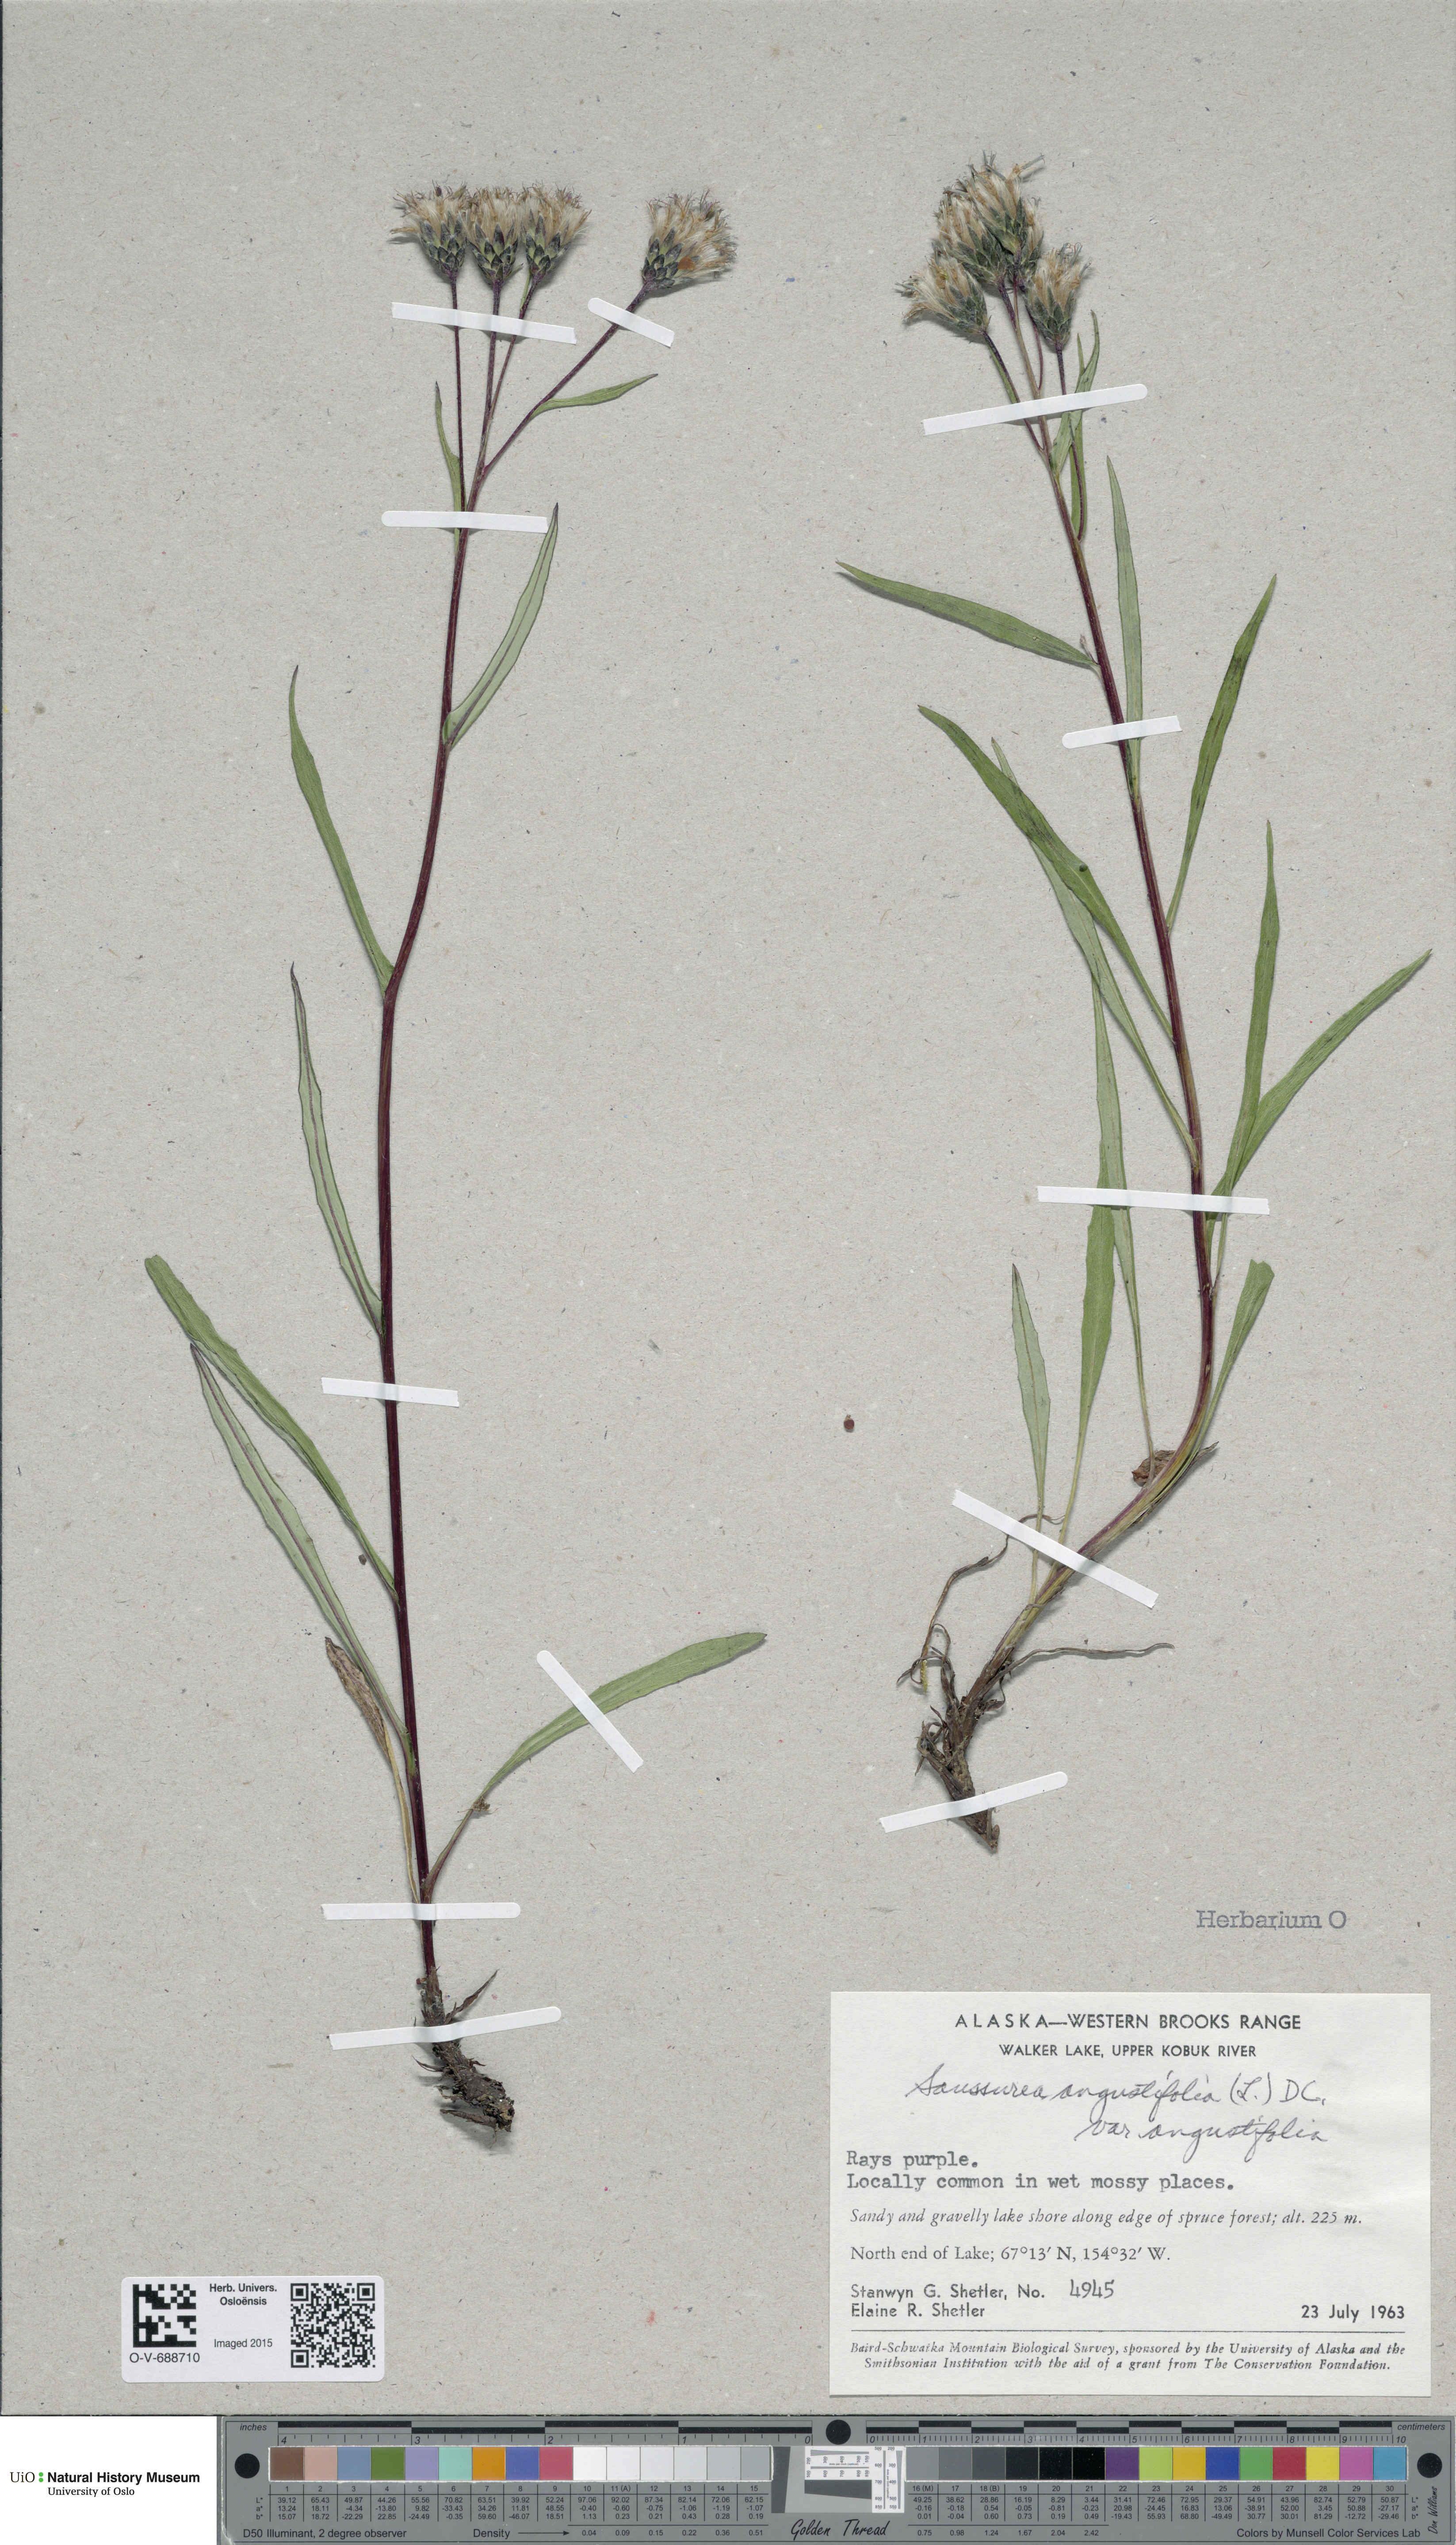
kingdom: Plantae
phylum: Tracheophyta
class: Magnoliopsida
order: Asterales
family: Asteraceae
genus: Saussurea
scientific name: Saussurea angustifolia
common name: Common saussurea
